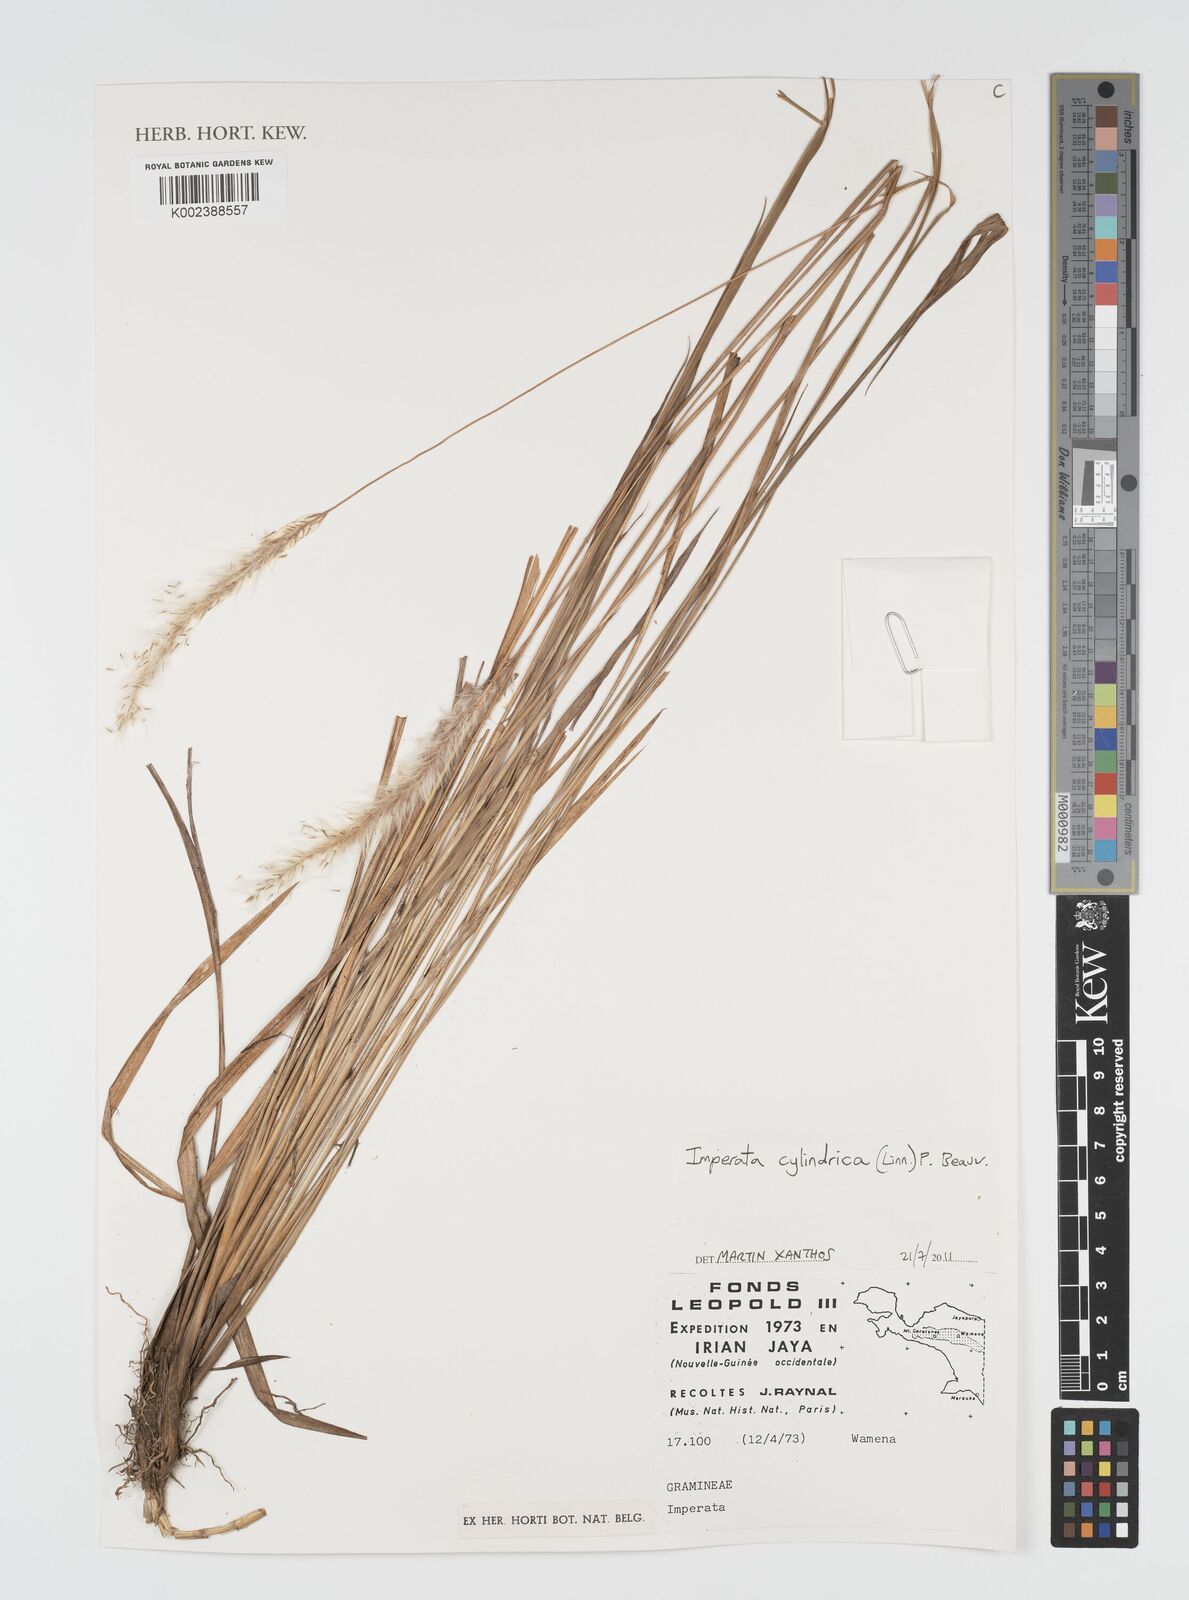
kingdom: Plantae
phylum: Tracheophyta
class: Liliopsida
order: Poales
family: Poaceae
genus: Imperata
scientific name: Imperata cylindrica
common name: Cogongrass
